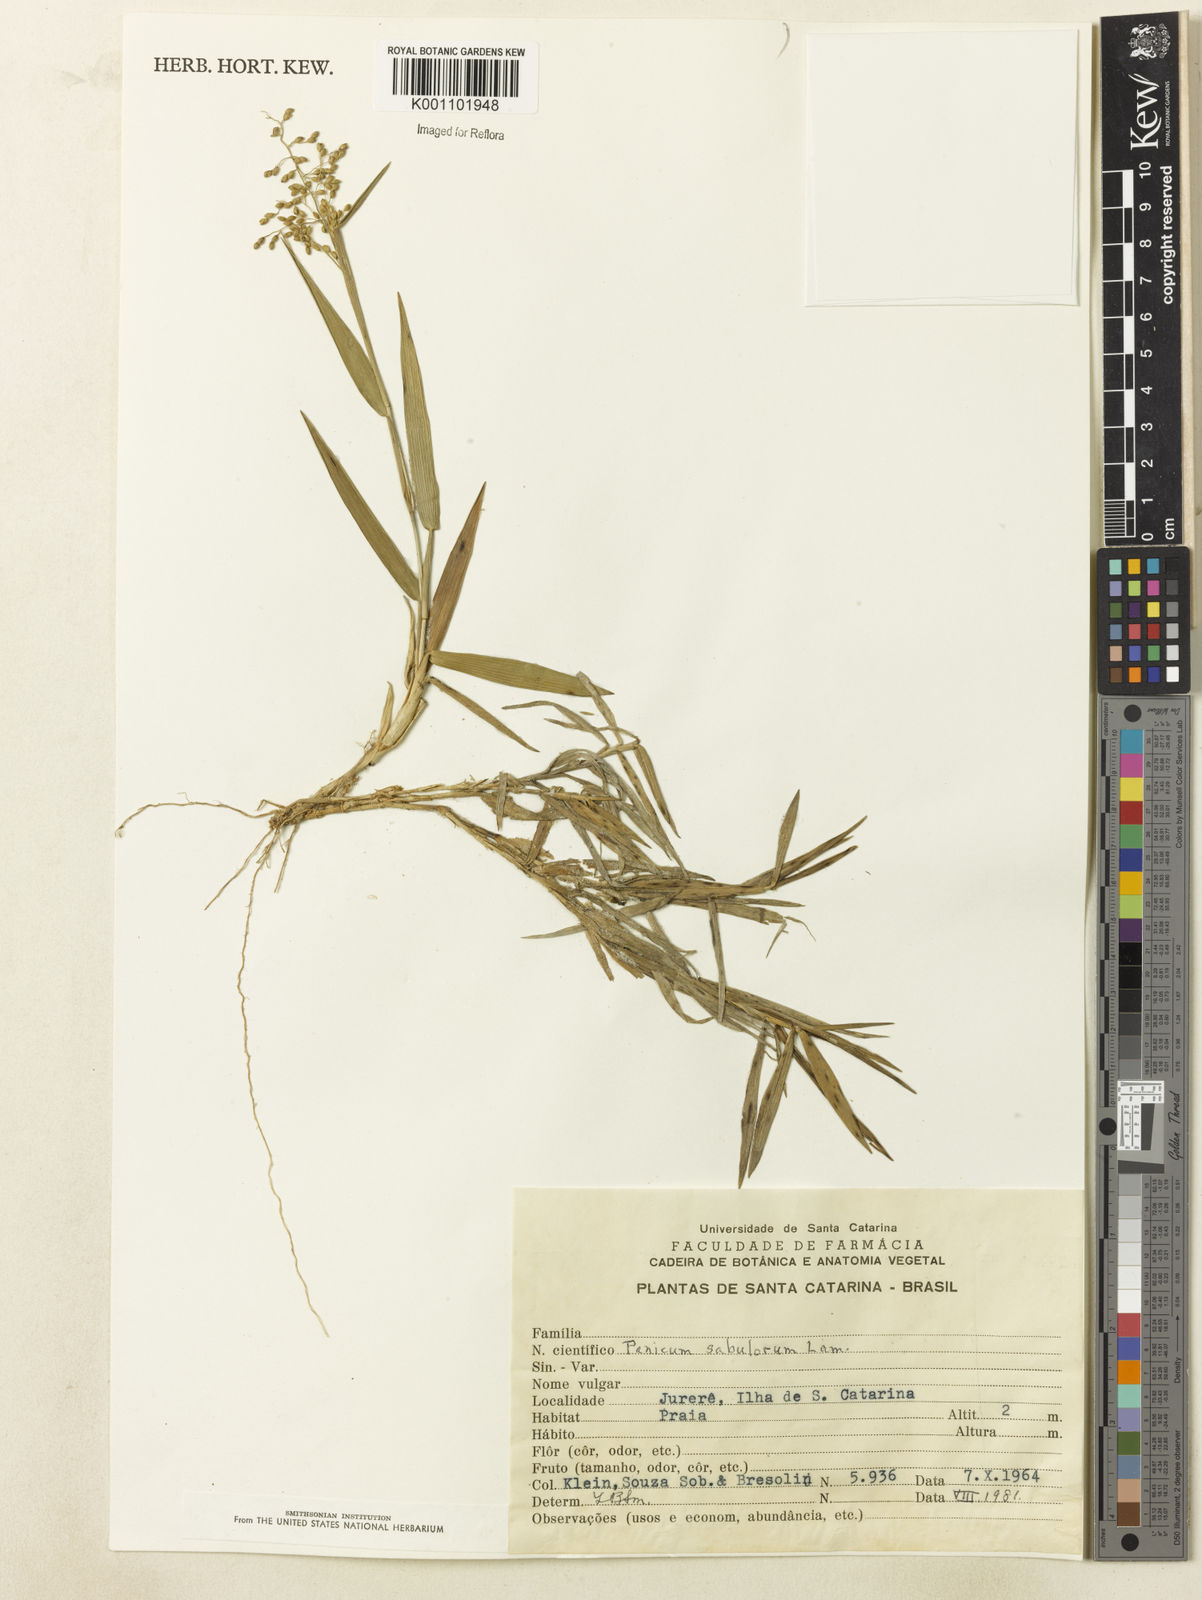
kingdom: Plantae
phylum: Tracheophyta
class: Liliopsida
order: Poales
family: Poaceae
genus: Dichanthelium
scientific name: Dichanthelium sabulorum
